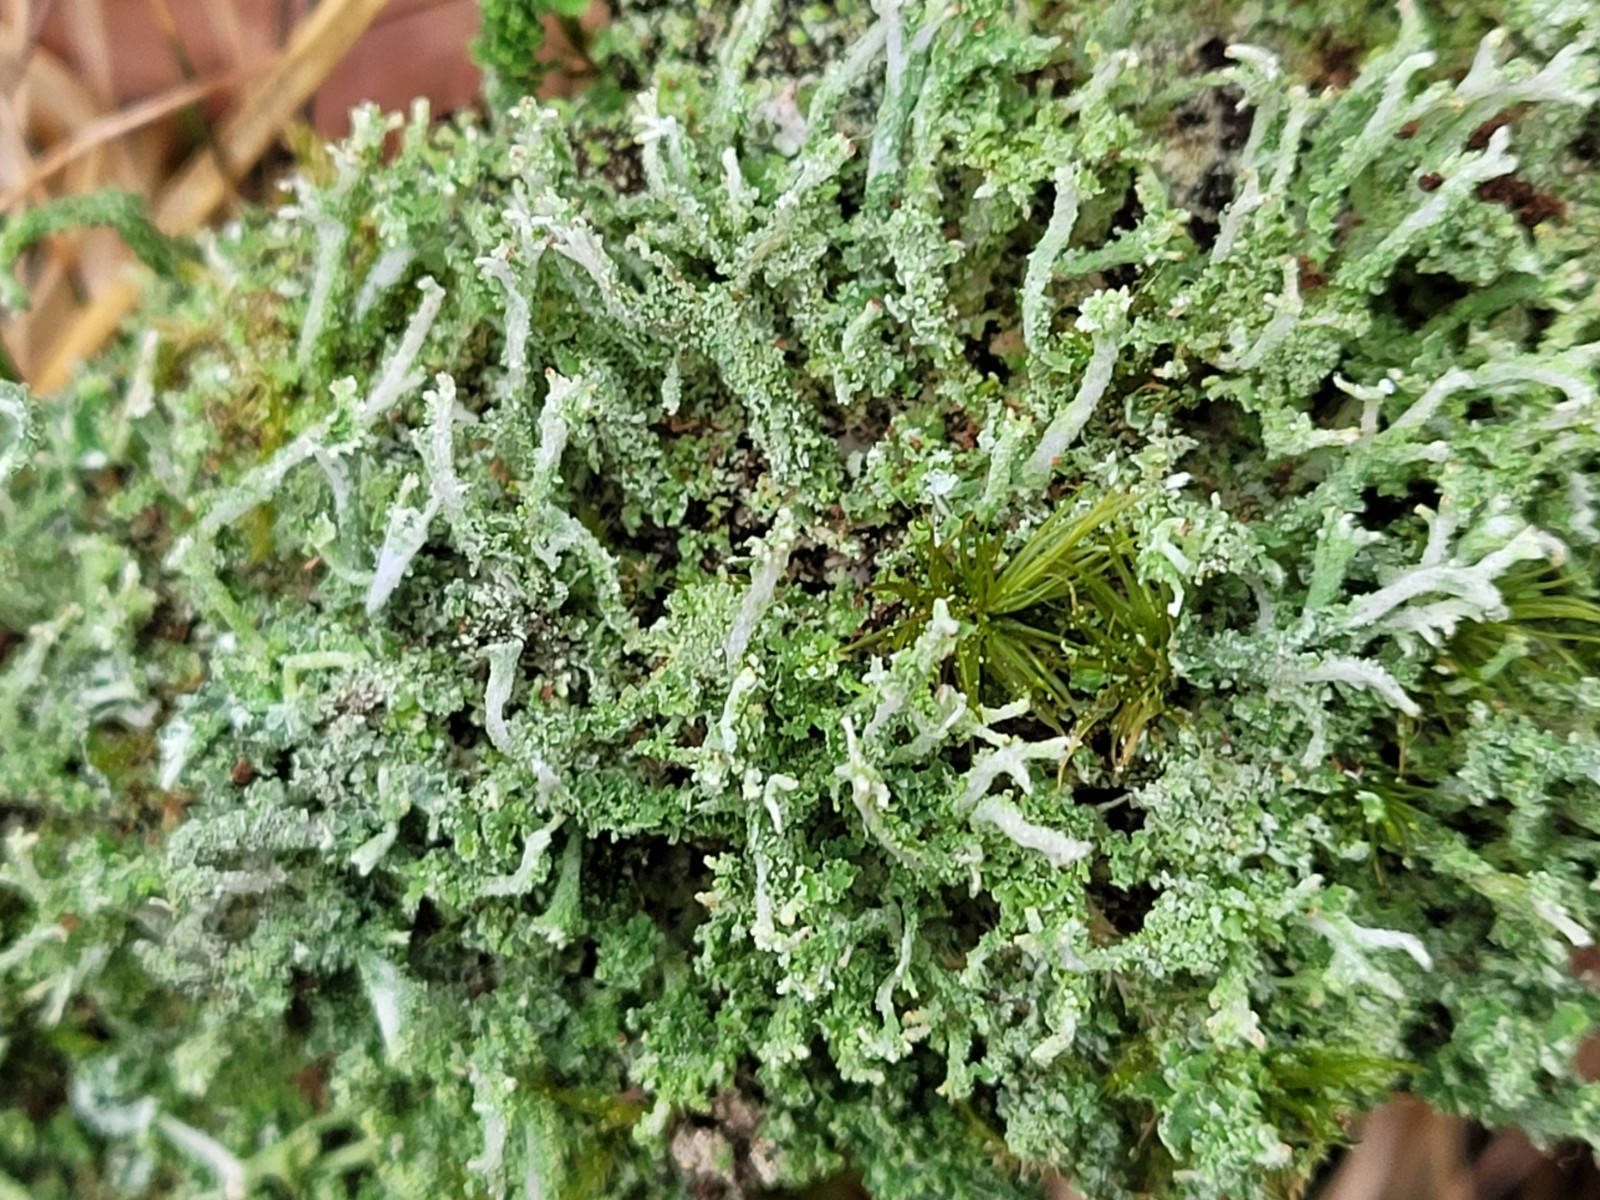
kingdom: Fungi
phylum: Ascomycota
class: Lecanoromycetes
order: Lecanorales
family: Cladoniaceae
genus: Cladonia
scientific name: Cladonia
